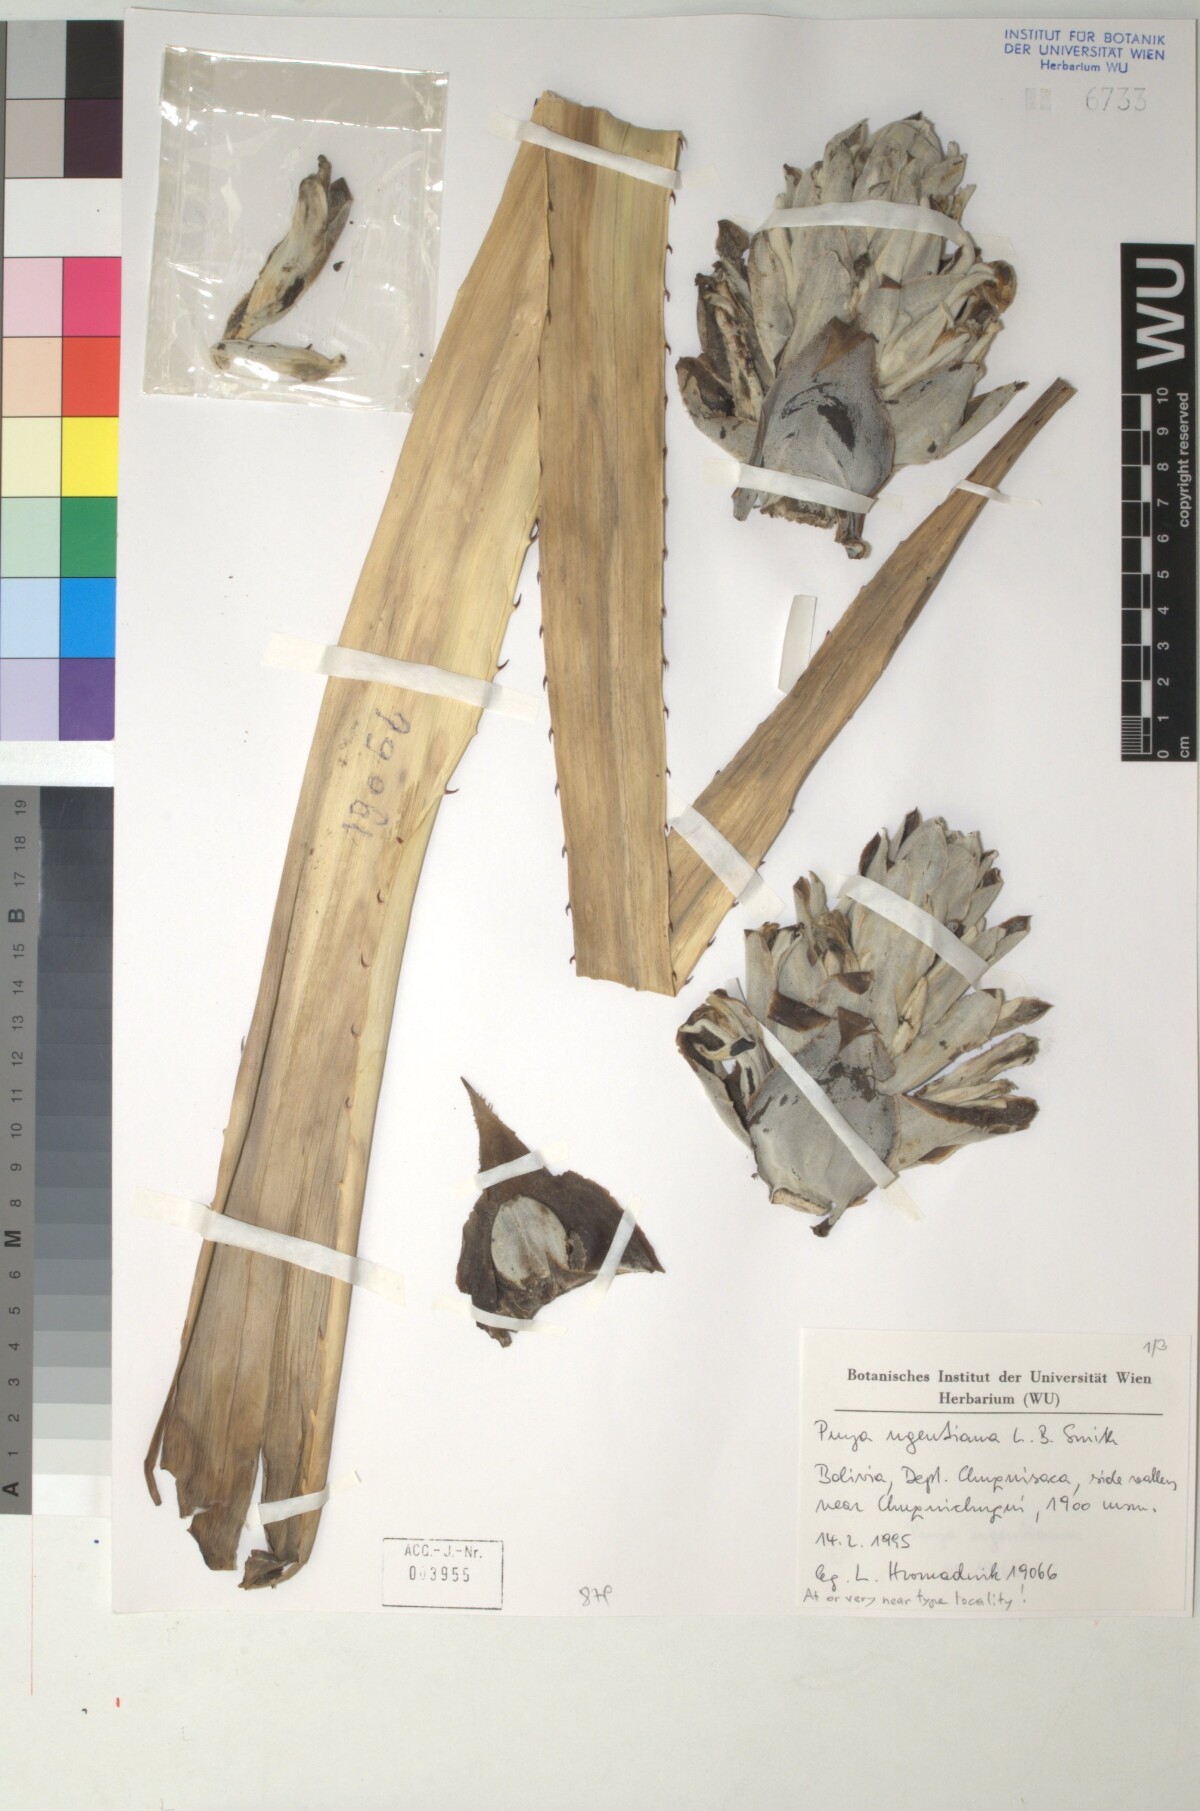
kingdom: Plantae
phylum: Tracheophyta
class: Liliopsida
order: Poales
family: Bromeliaceae
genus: Puya
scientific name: Puya ugentiana
